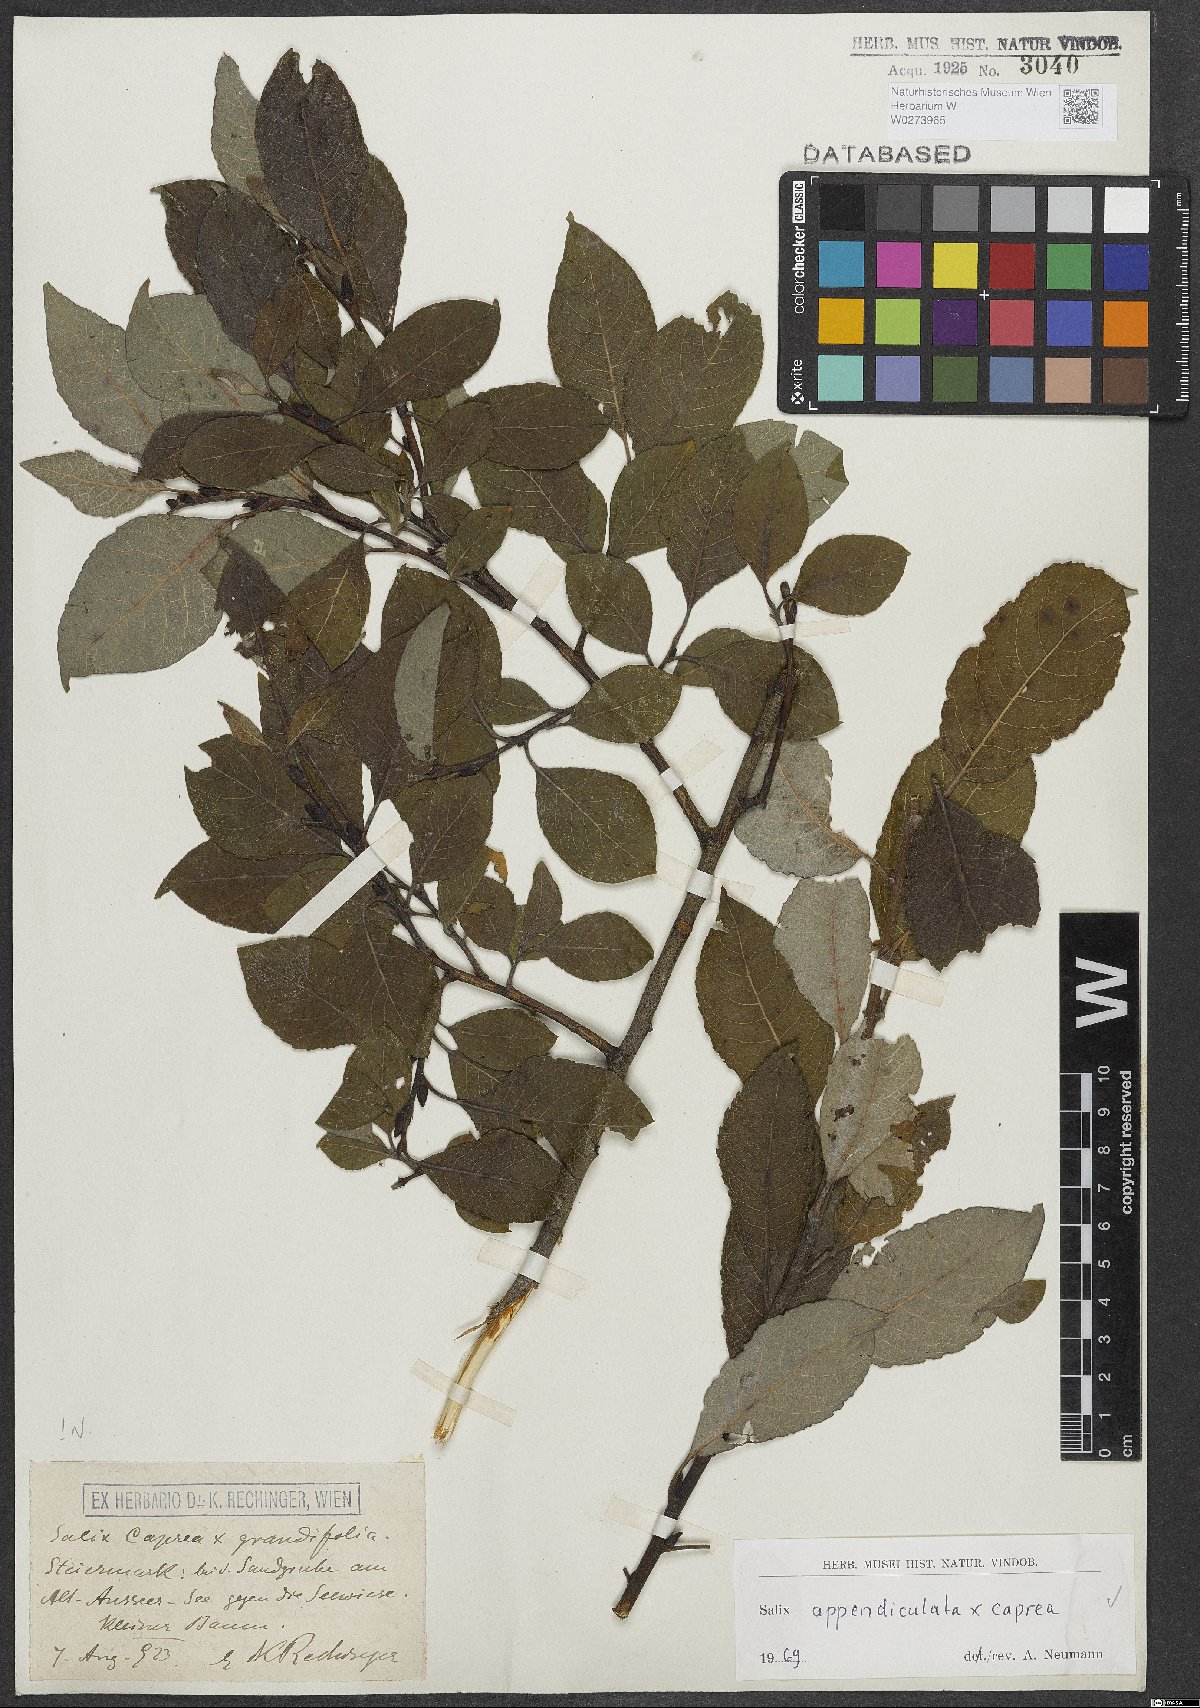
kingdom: Plantae
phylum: Tracheophyta
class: Magnoliopsida
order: Malpighiales
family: Salicaceae
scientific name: Salicaceae
